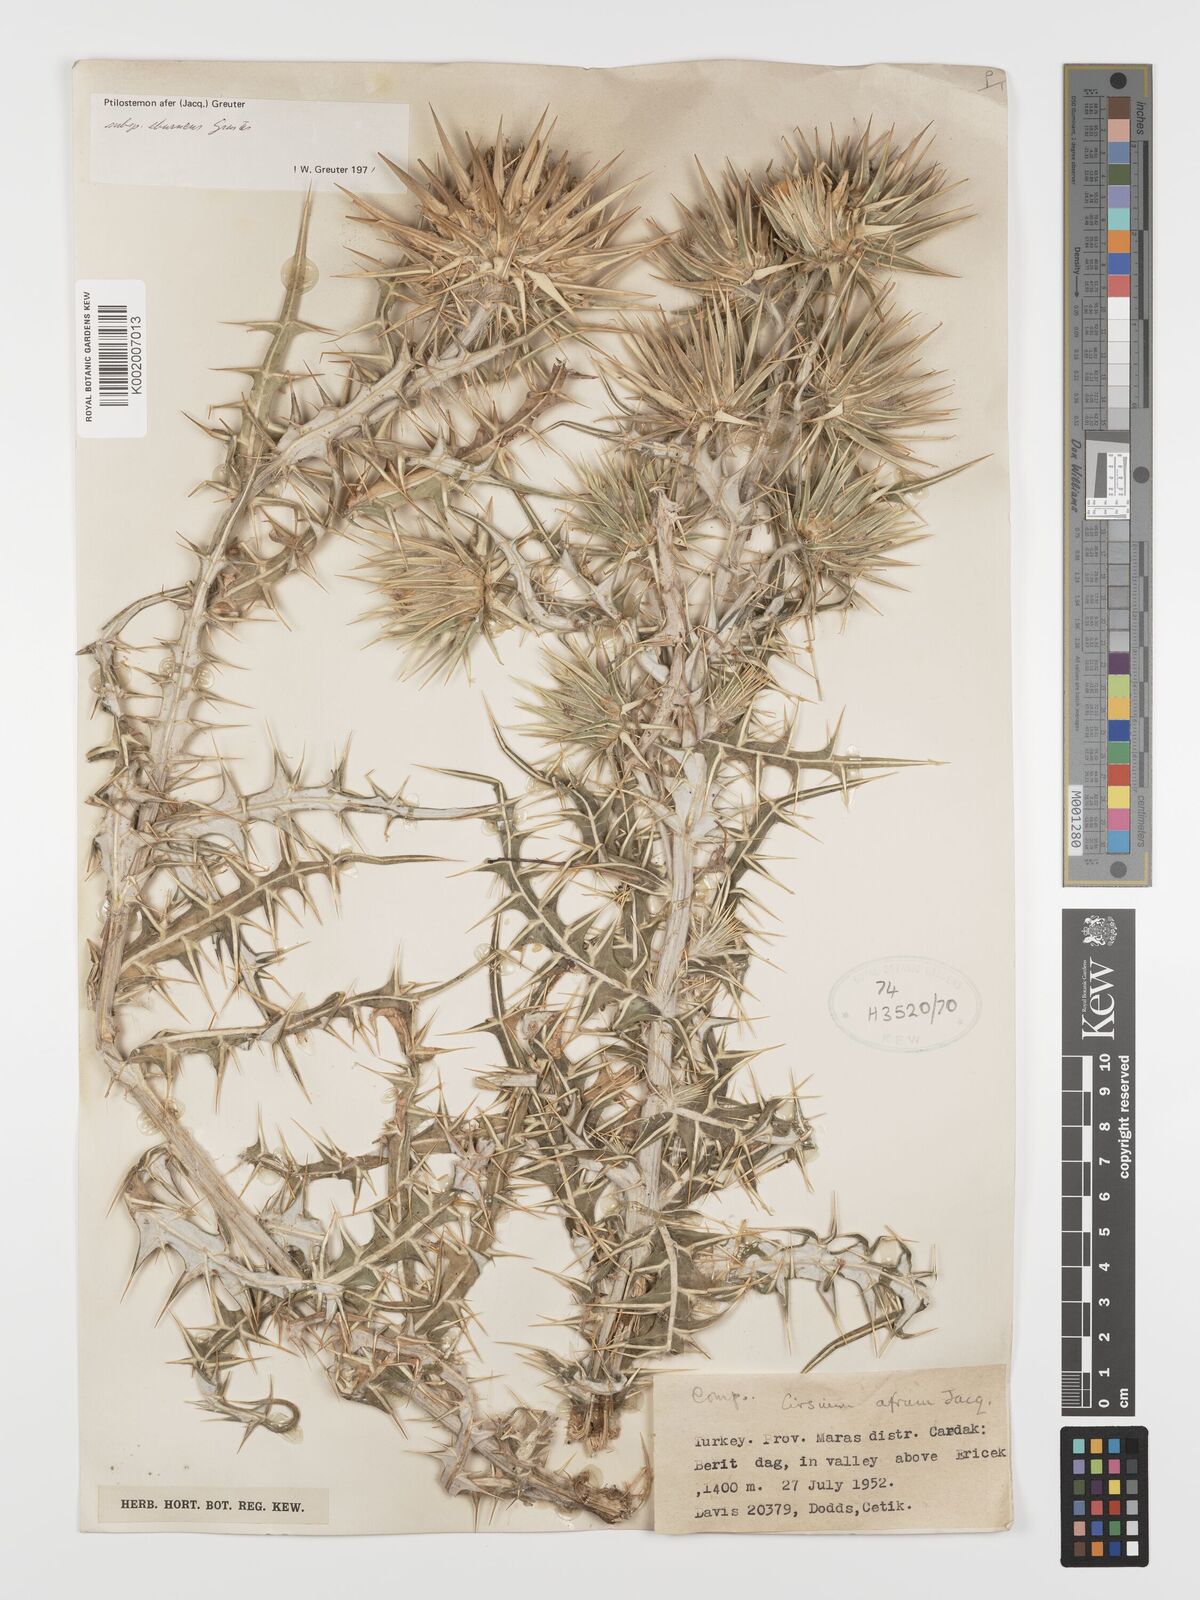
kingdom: Plantae
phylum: Tracheophyta
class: Magnoliopsida
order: Asterales
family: Asteraceae
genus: Ptilostemon
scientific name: Ptilostemon afer
